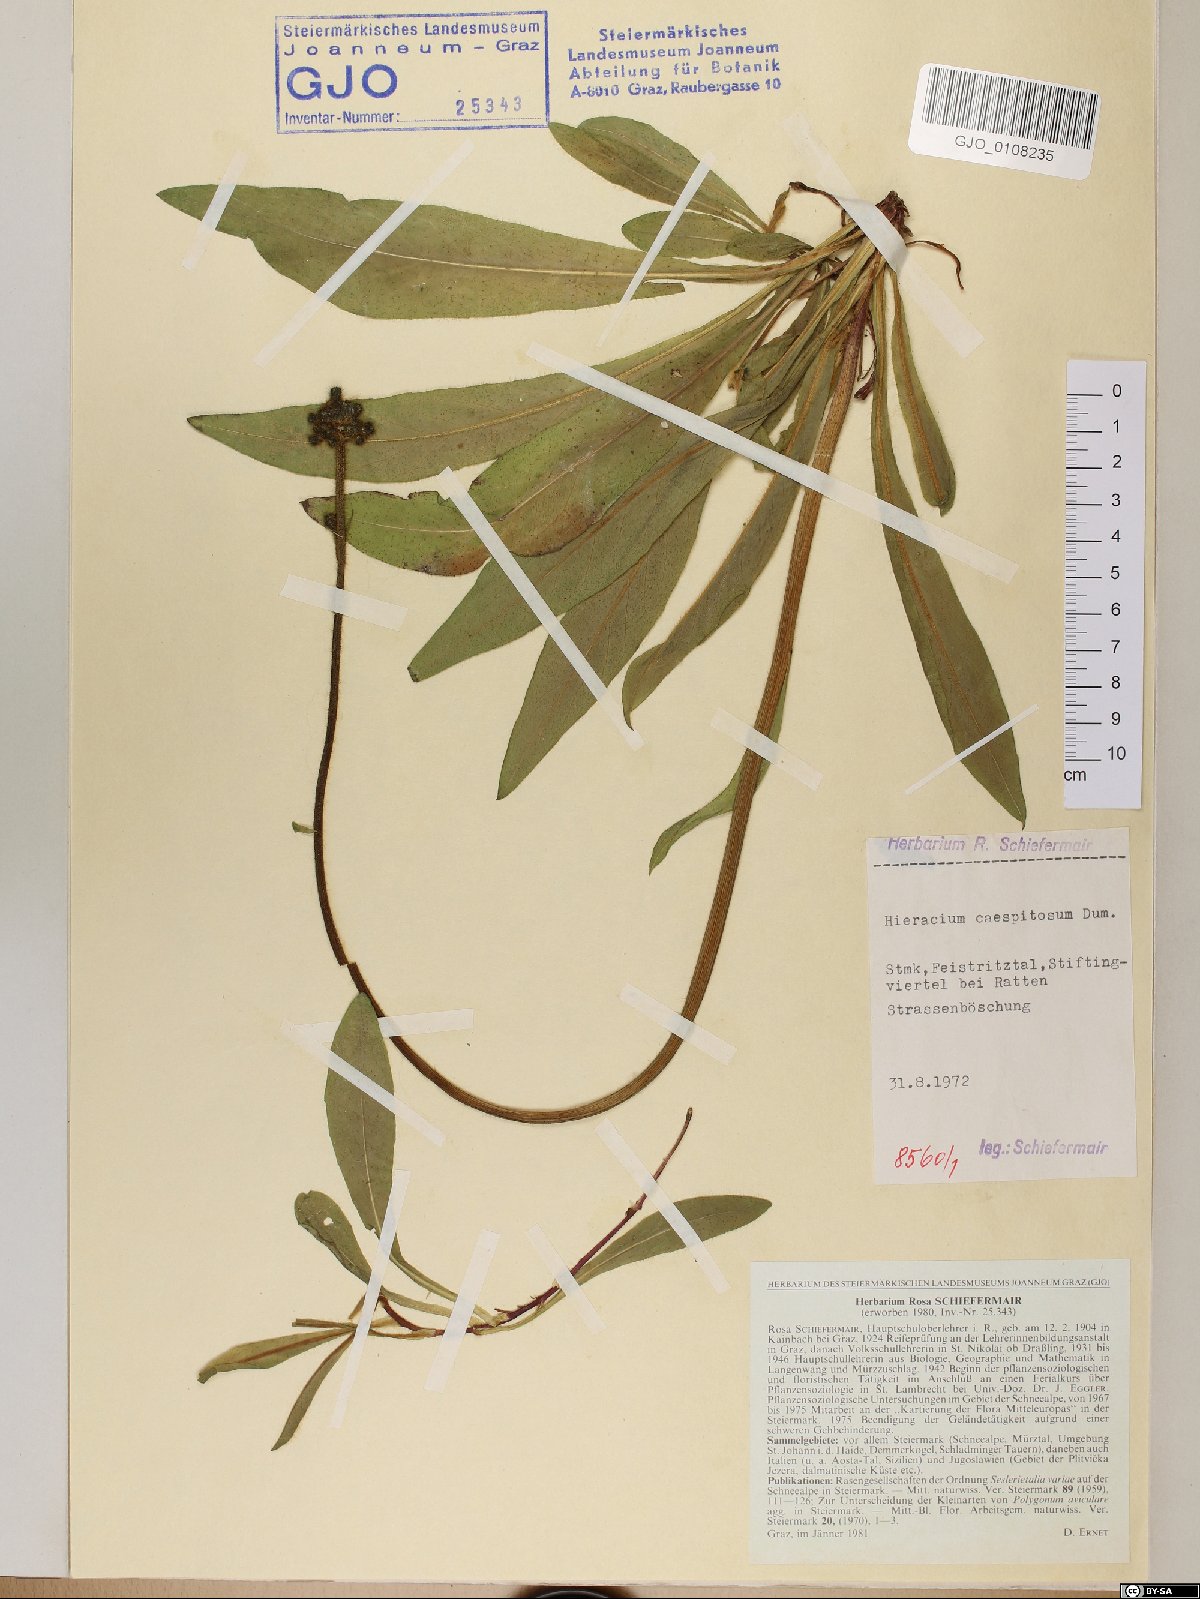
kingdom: Plantae
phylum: Tracheophyta
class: Magnoliopsida
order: Asterales
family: Asteraceae
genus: Pilosella
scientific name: Pilosella caespitosa
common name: Yellow fox-and-cubs
